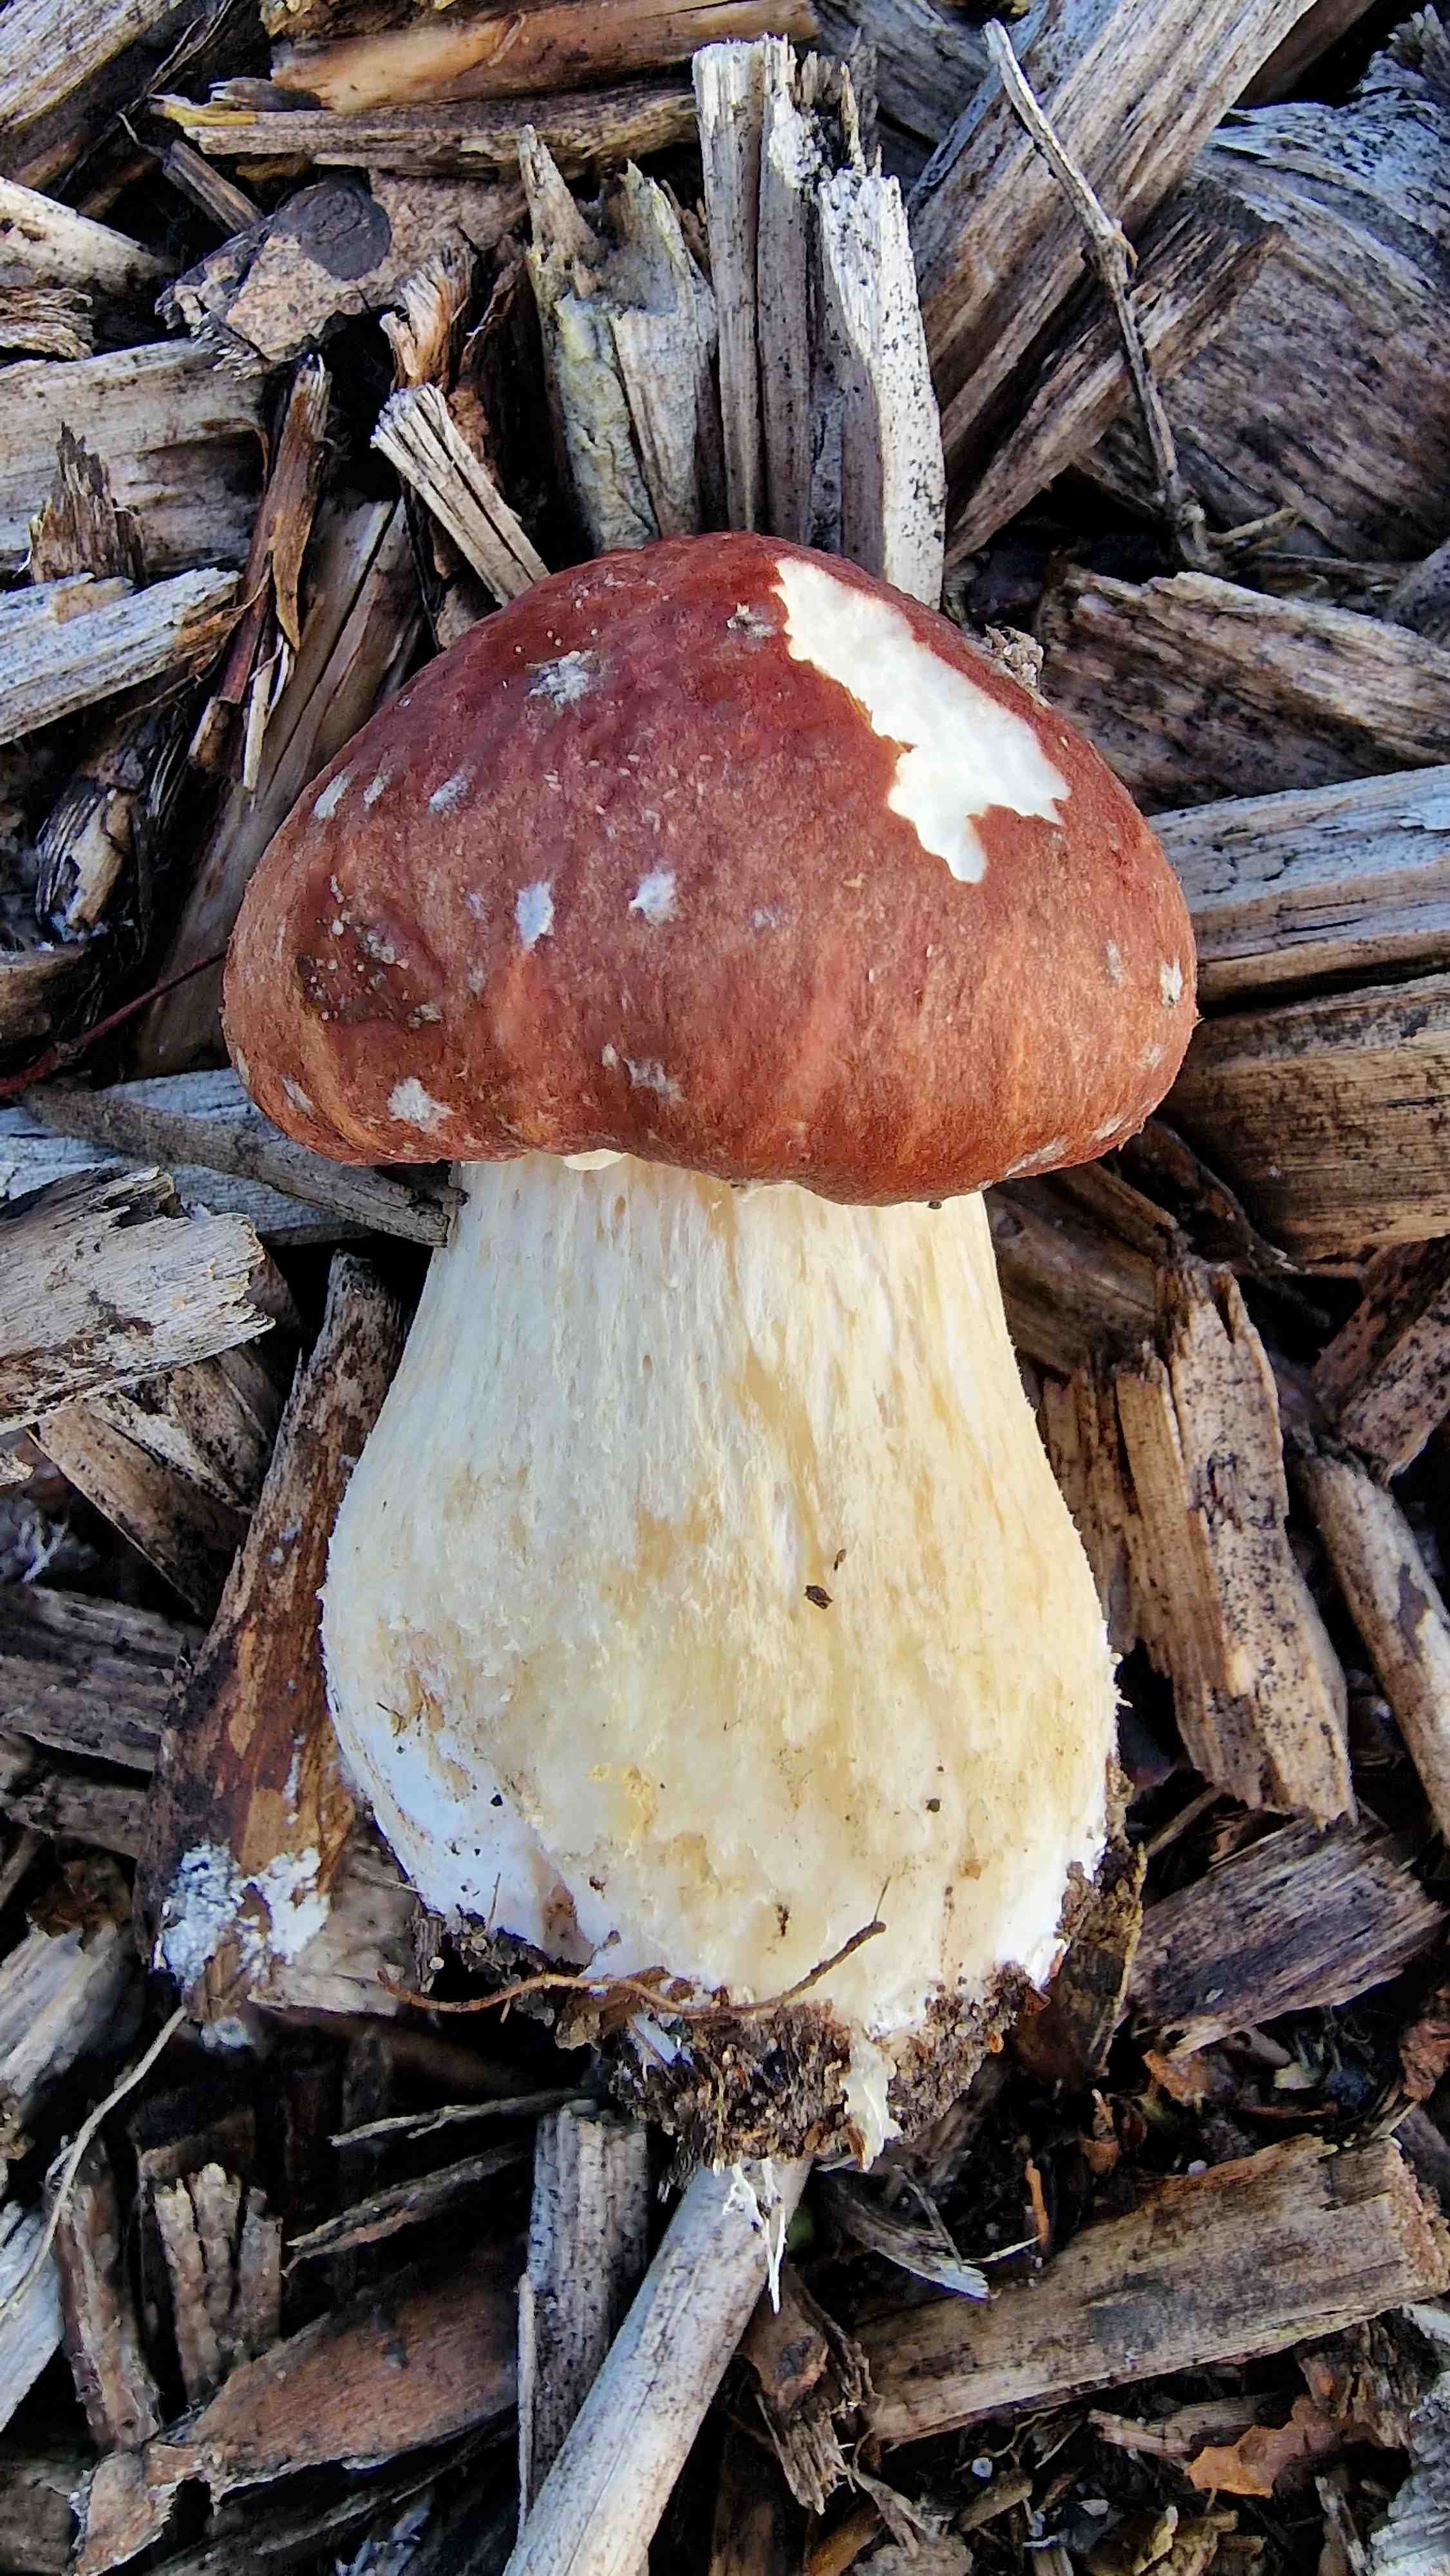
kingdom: Fungi
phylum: Basidiomycota
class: Agaricomycetes
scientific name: Agaricomycetes
